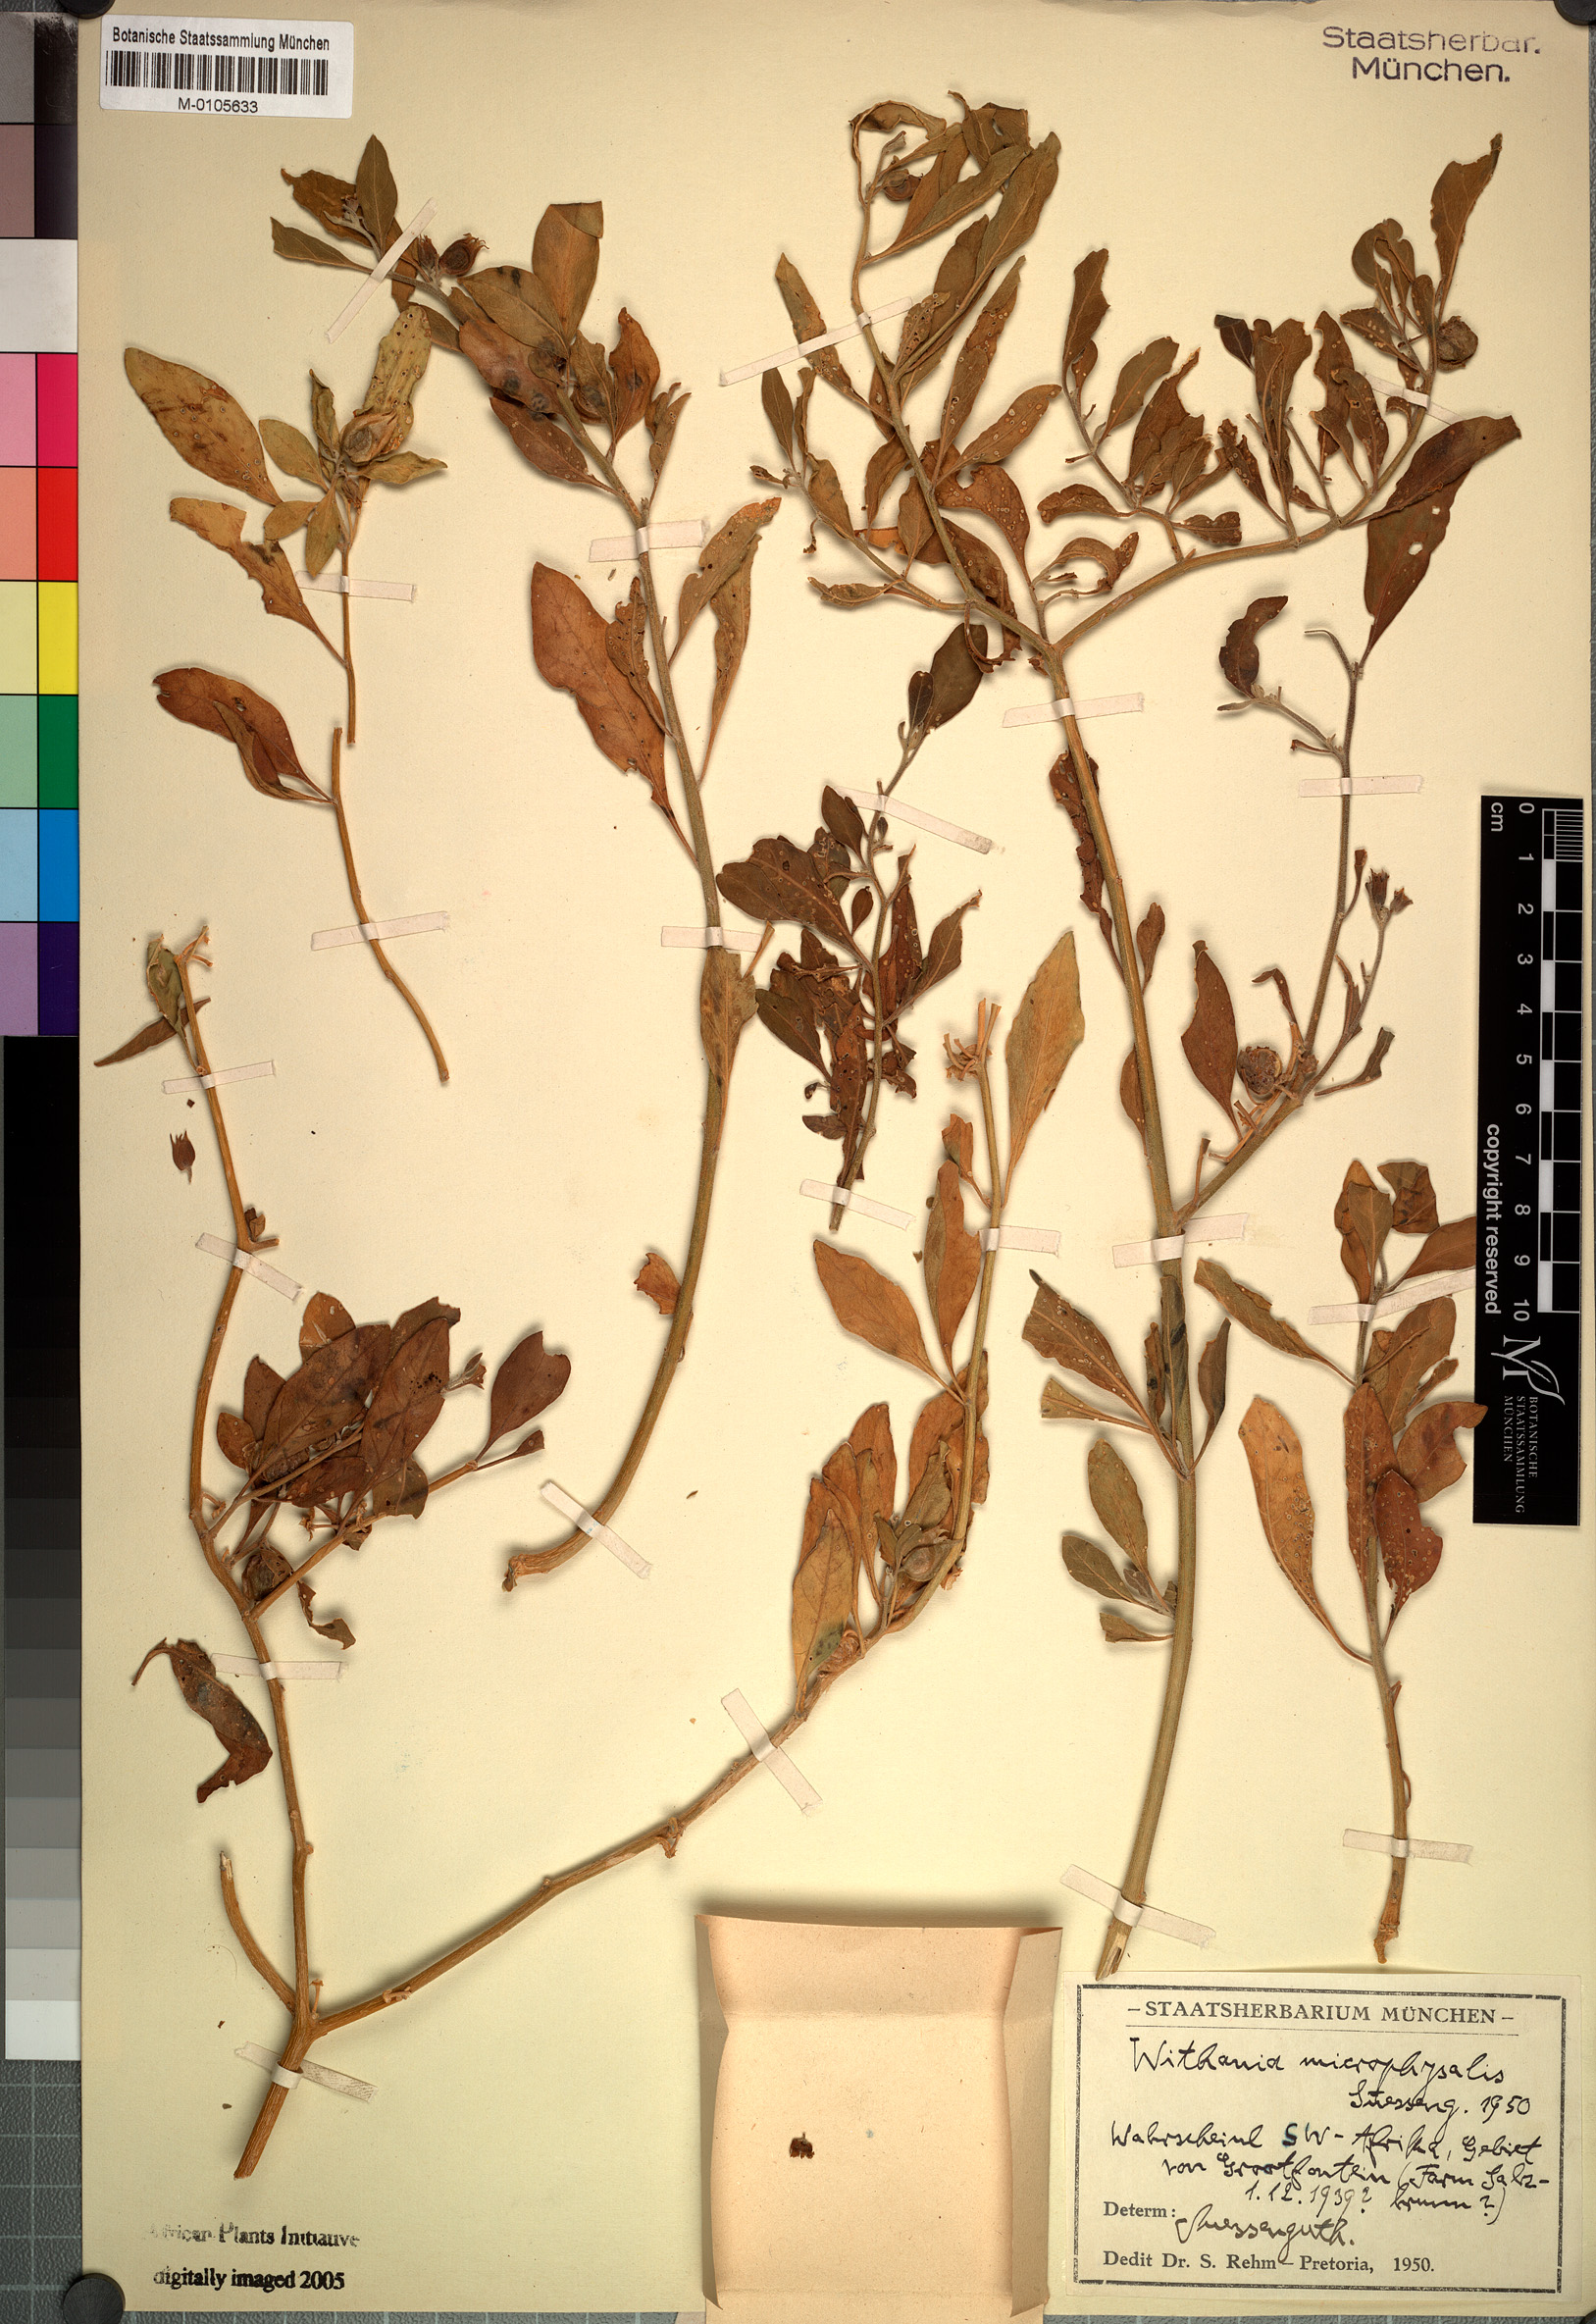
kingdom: Plantae
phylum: Tracheophyta
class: Magnoliopsida
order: Solanales
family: Solanaceae
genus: Withania
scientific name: Withania somnifera
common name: Winter-cherry
